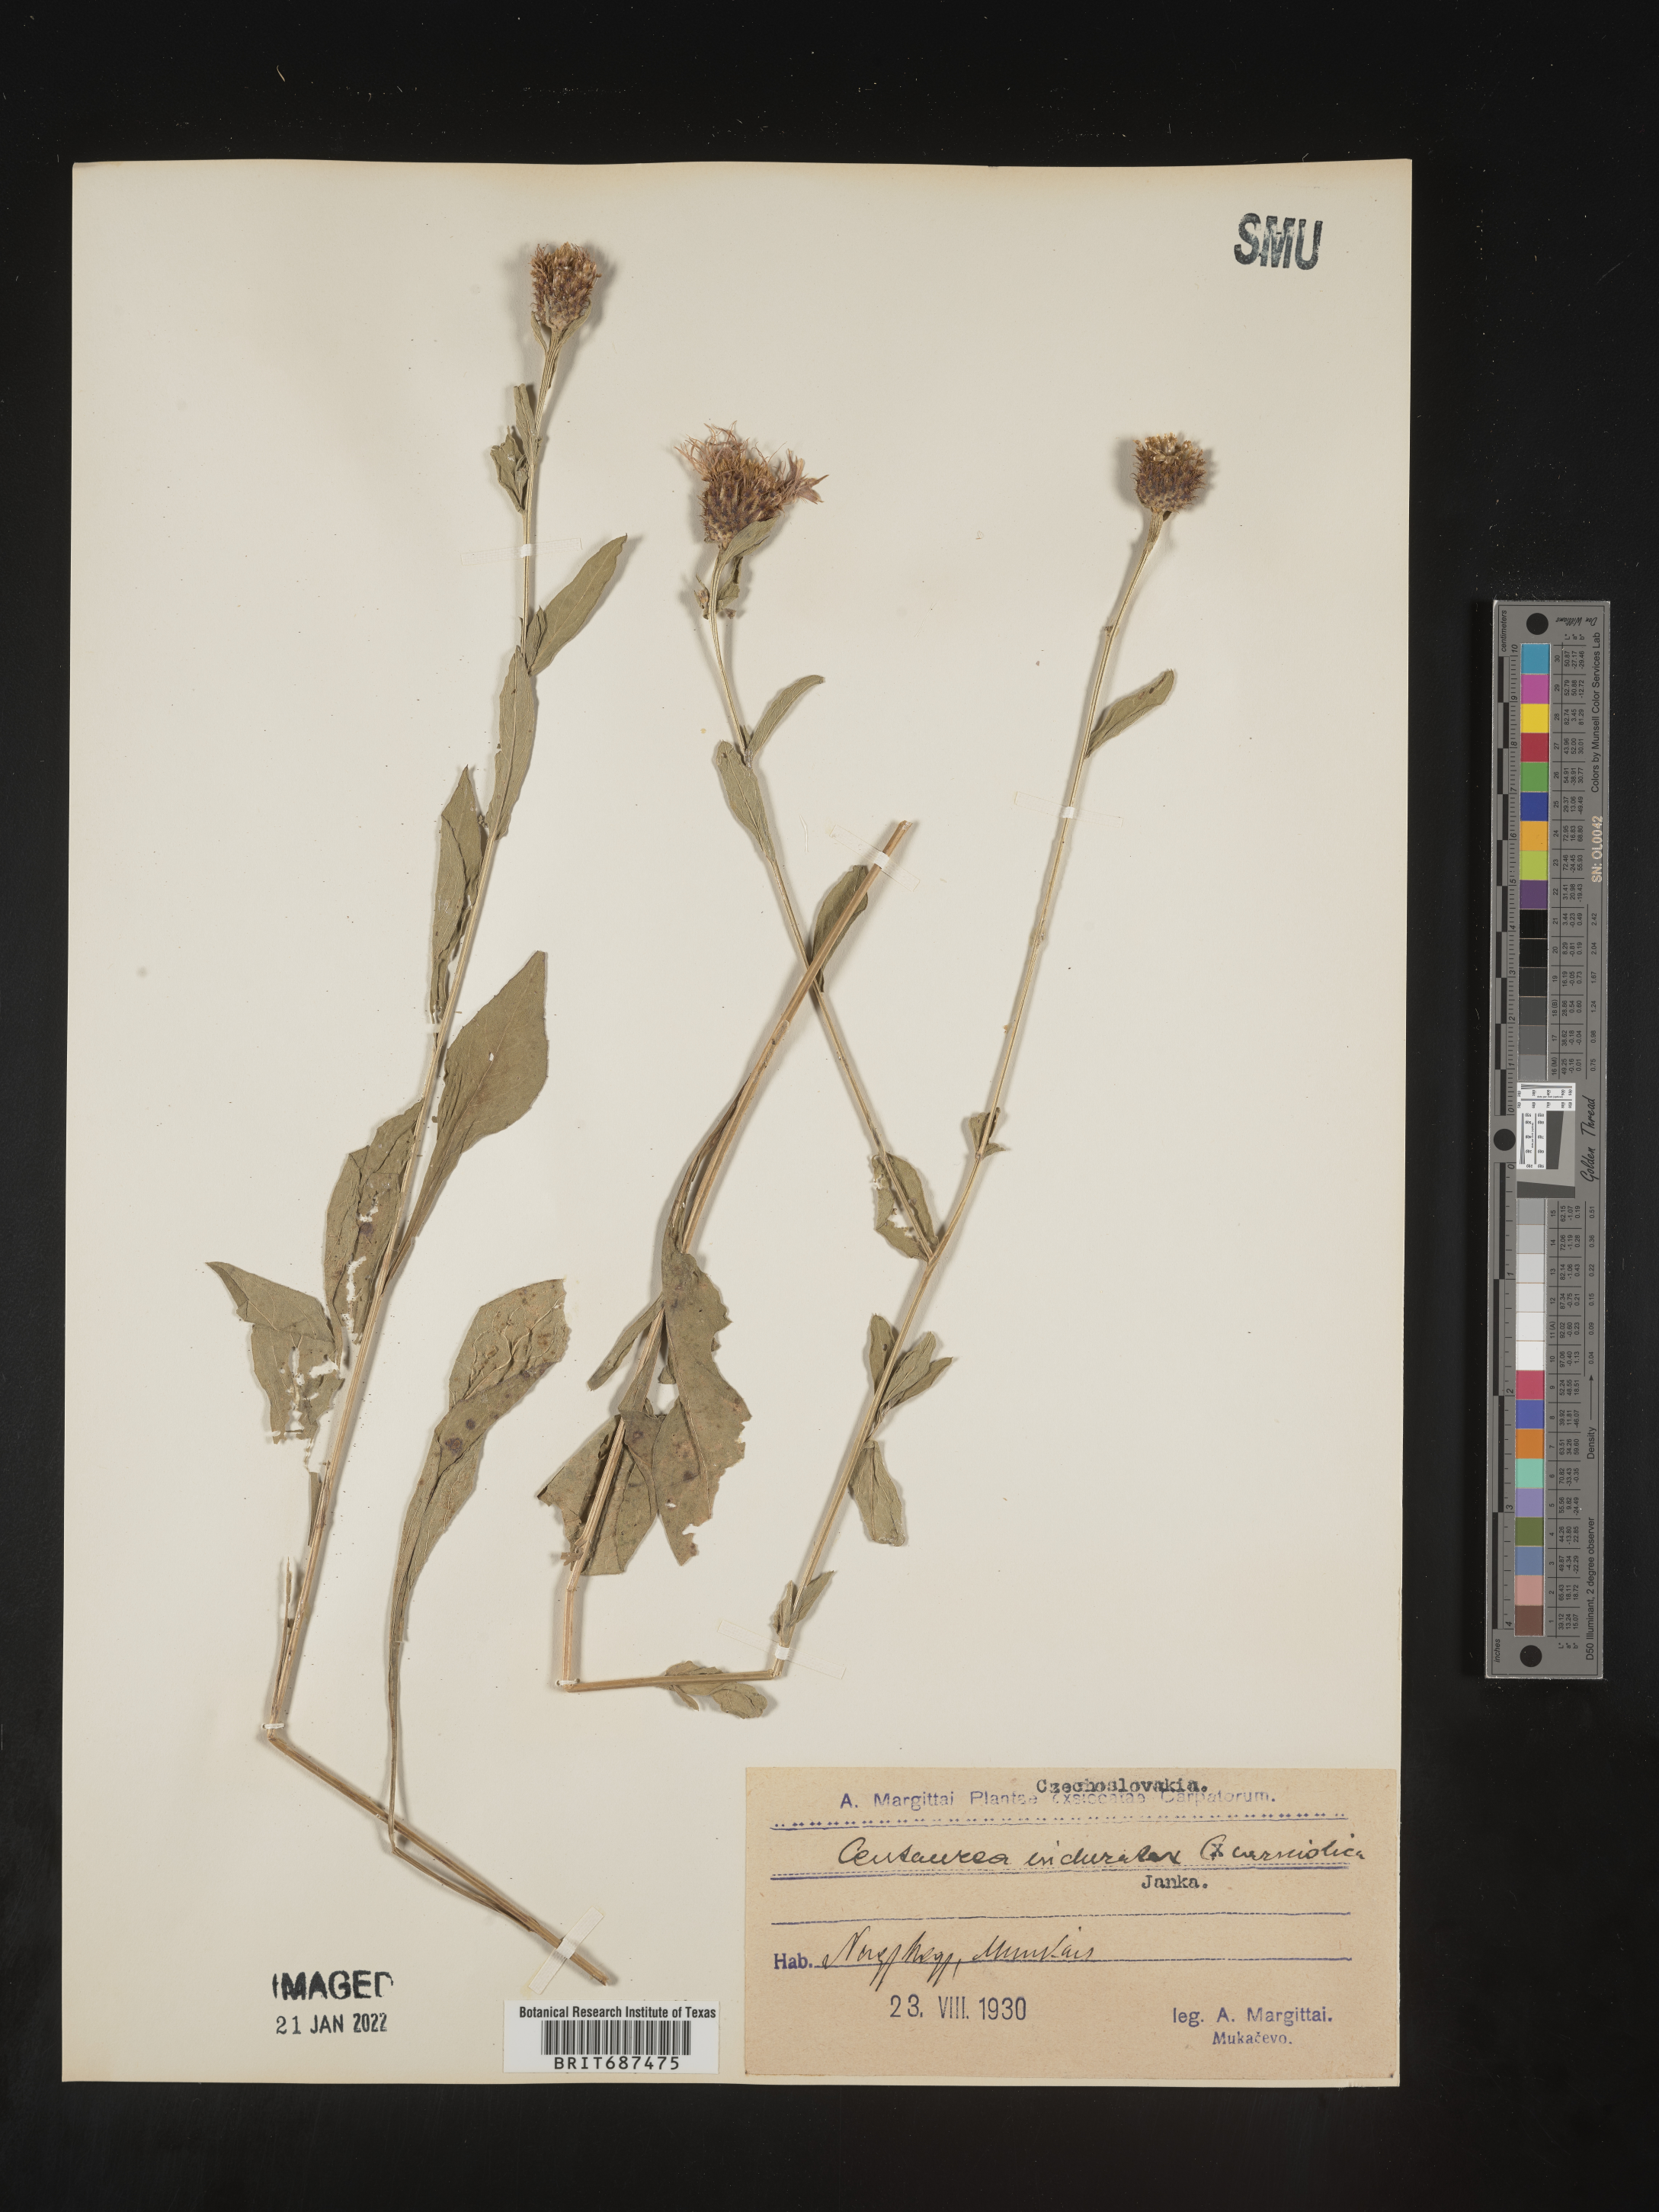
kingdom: Plantae
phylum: Tracheophyta
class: Magnoliopsida
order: Asterales
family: Asteraceae
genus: Centaurea
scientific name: Centaurea
